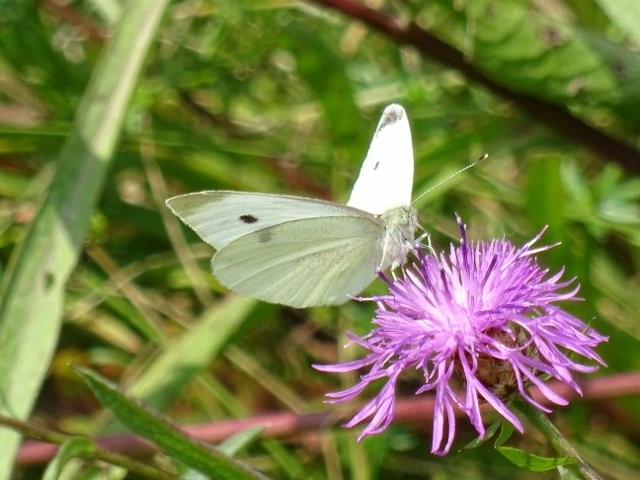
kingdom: Animalia
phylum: Arthropoda
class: Insecta
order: Lepidoptera
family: Pieridae
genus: Pieris
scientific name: Pieris rapae
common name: Cabbage White
